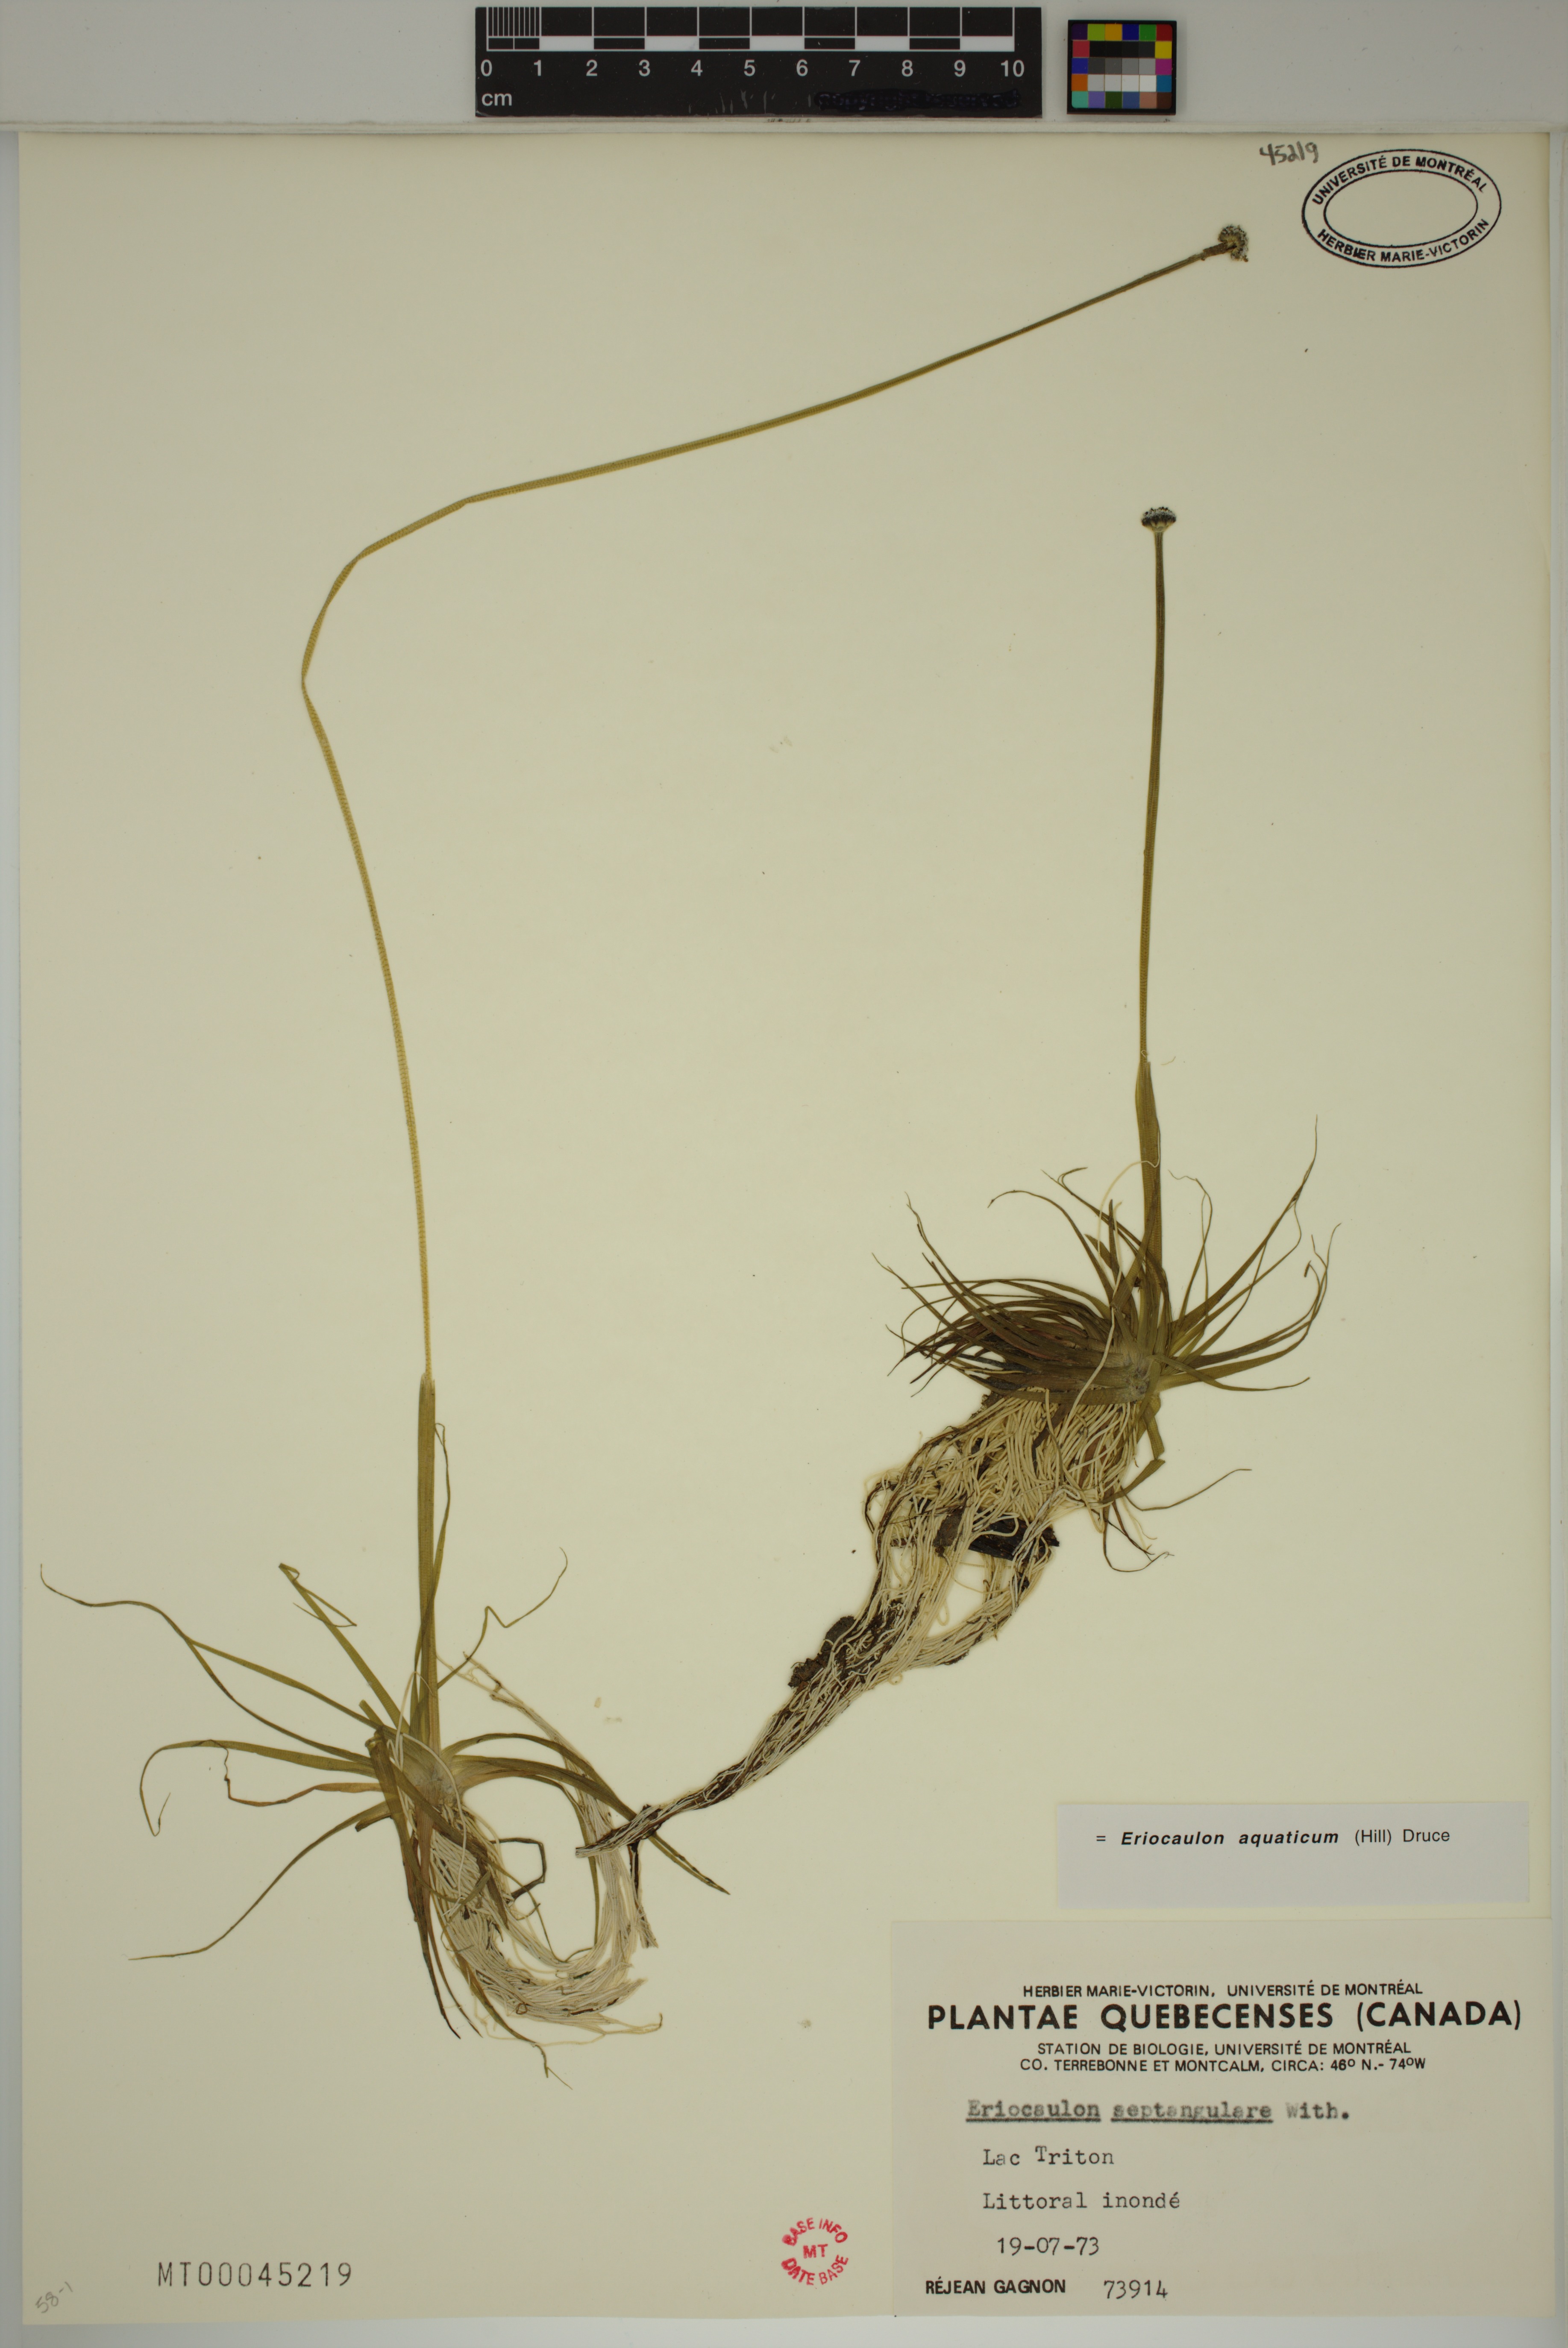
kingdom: Plantae
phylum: Tracheophyta
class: Liliopsida
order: Poales
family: Eriocaulaceae
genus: Eriocaulon
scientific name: Eriocaulon aquaticum
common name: Pipewort
